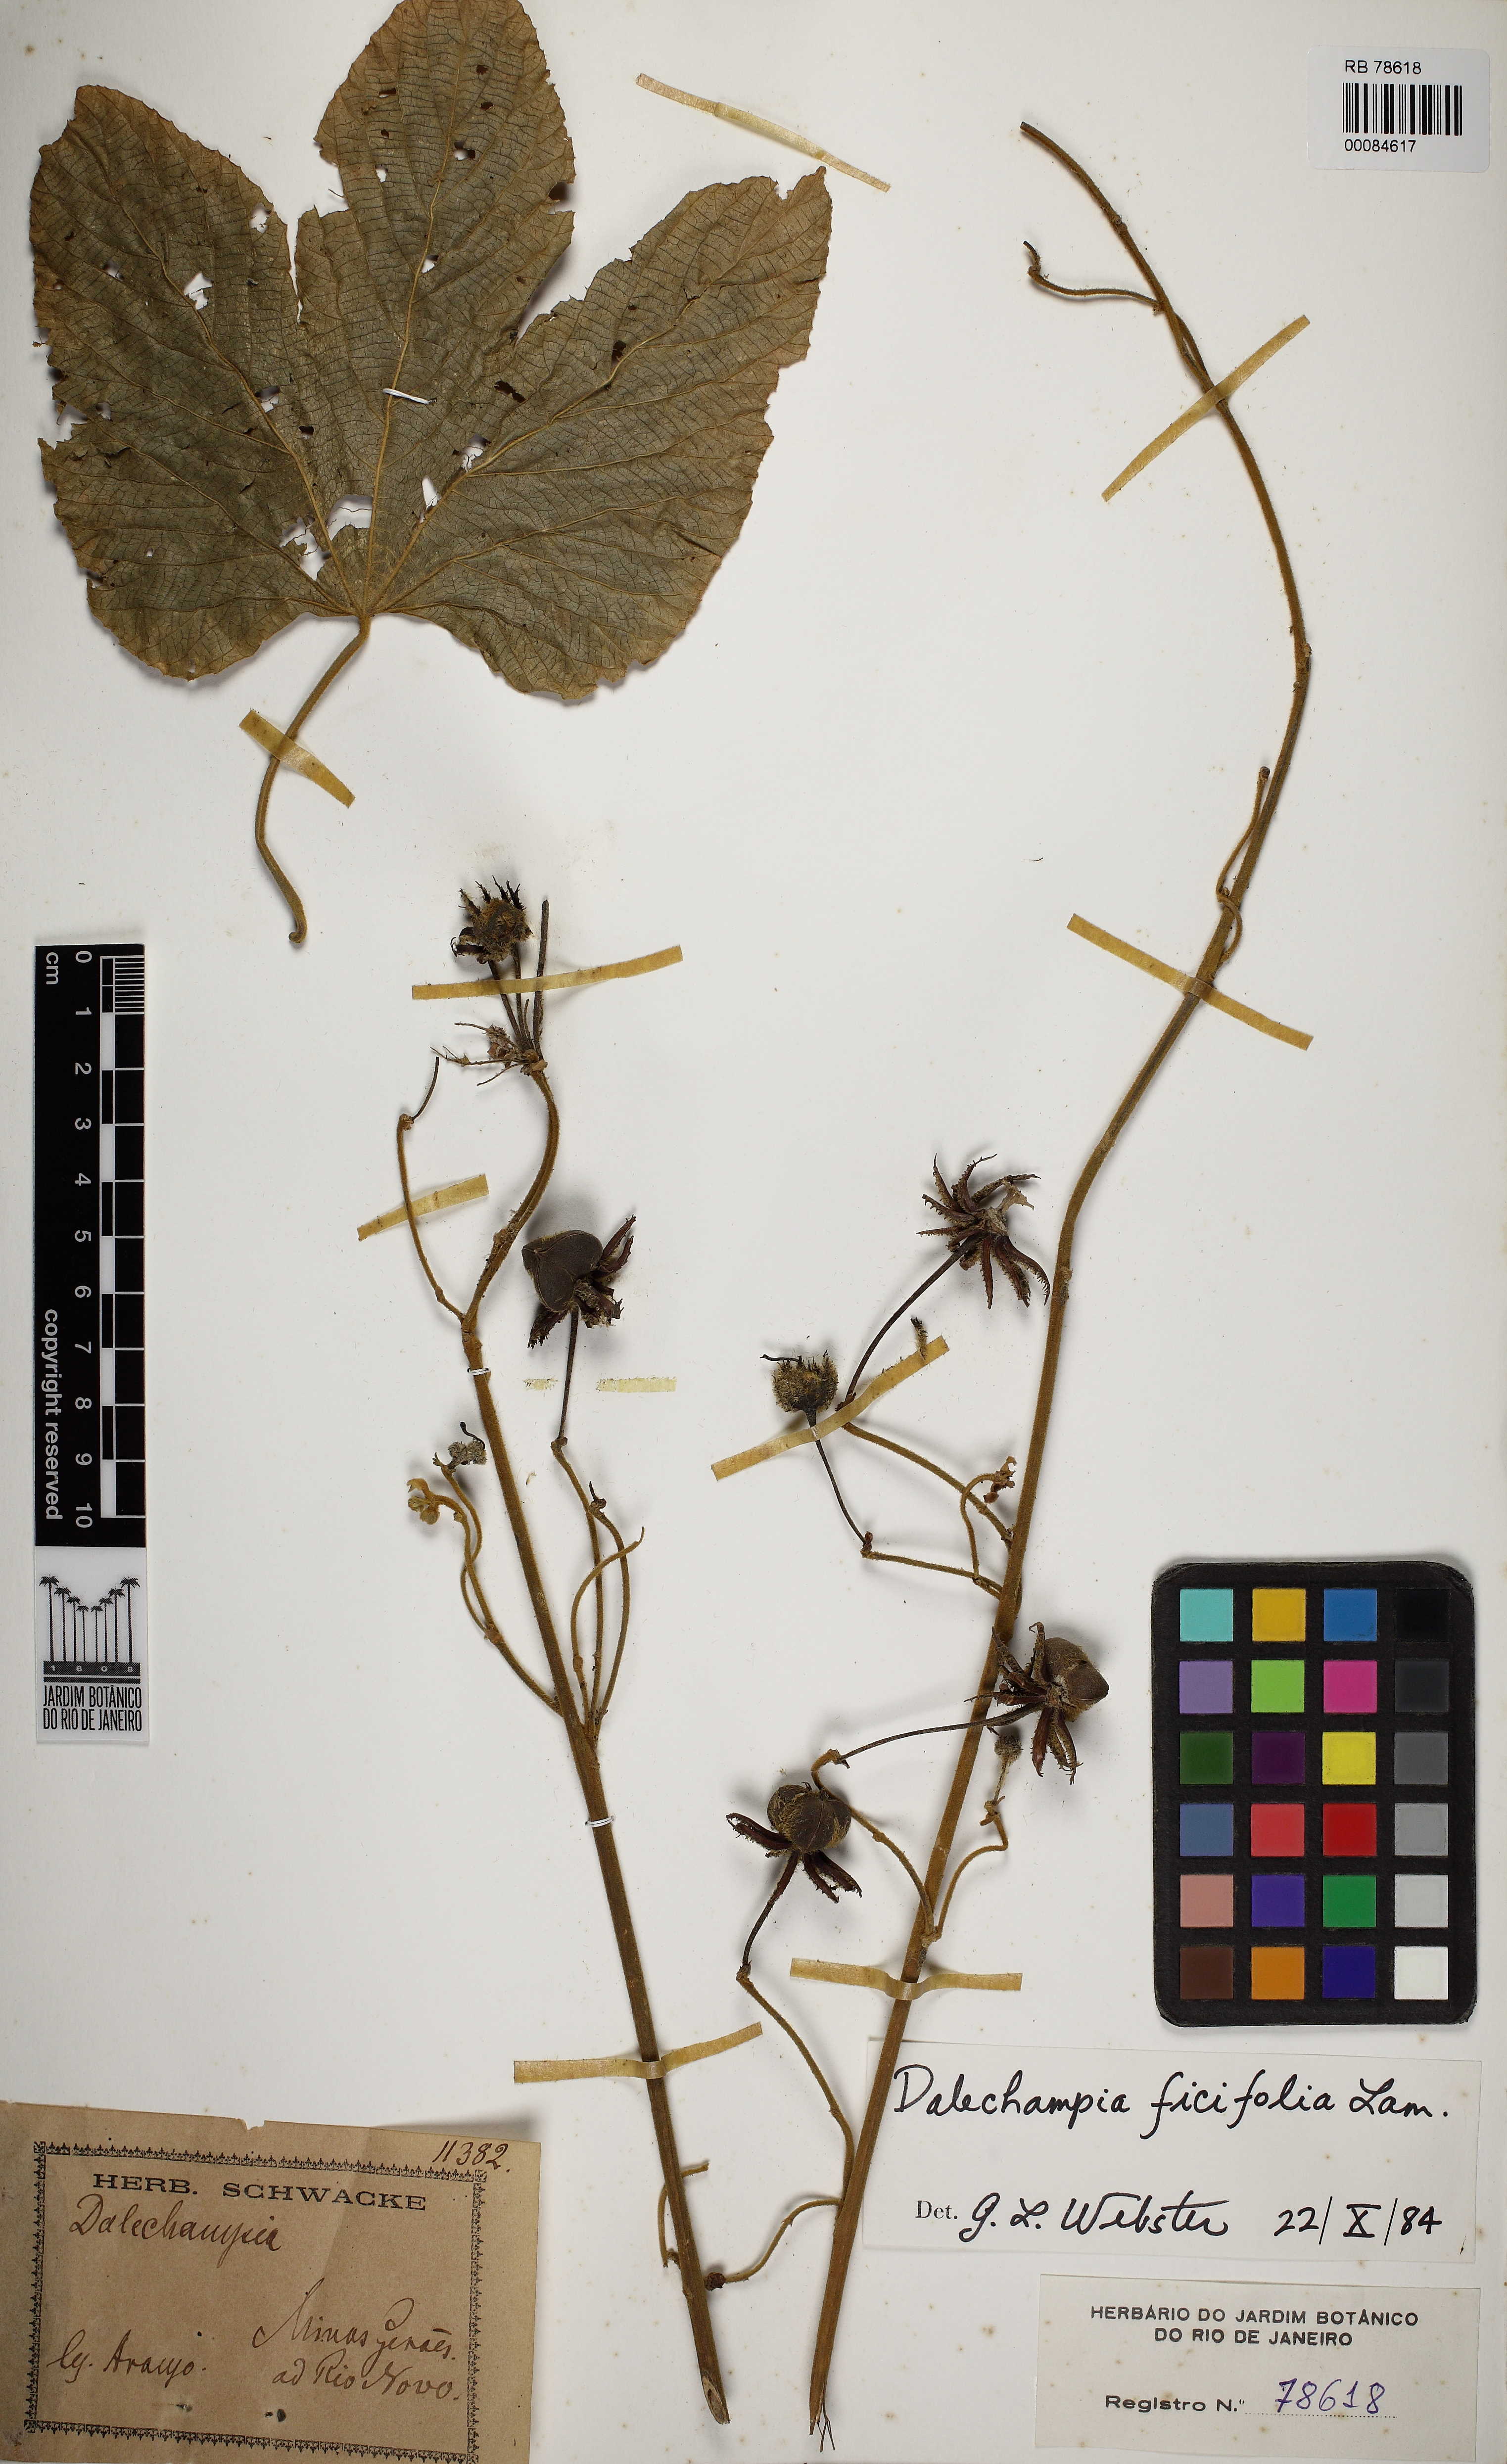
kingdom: Plantae
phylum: Tracheophyta
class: Magnoliopsida
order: Malpighiales
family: Euphorbiaceae
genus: Dalechampia
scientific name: Dalechampia ficifolia
